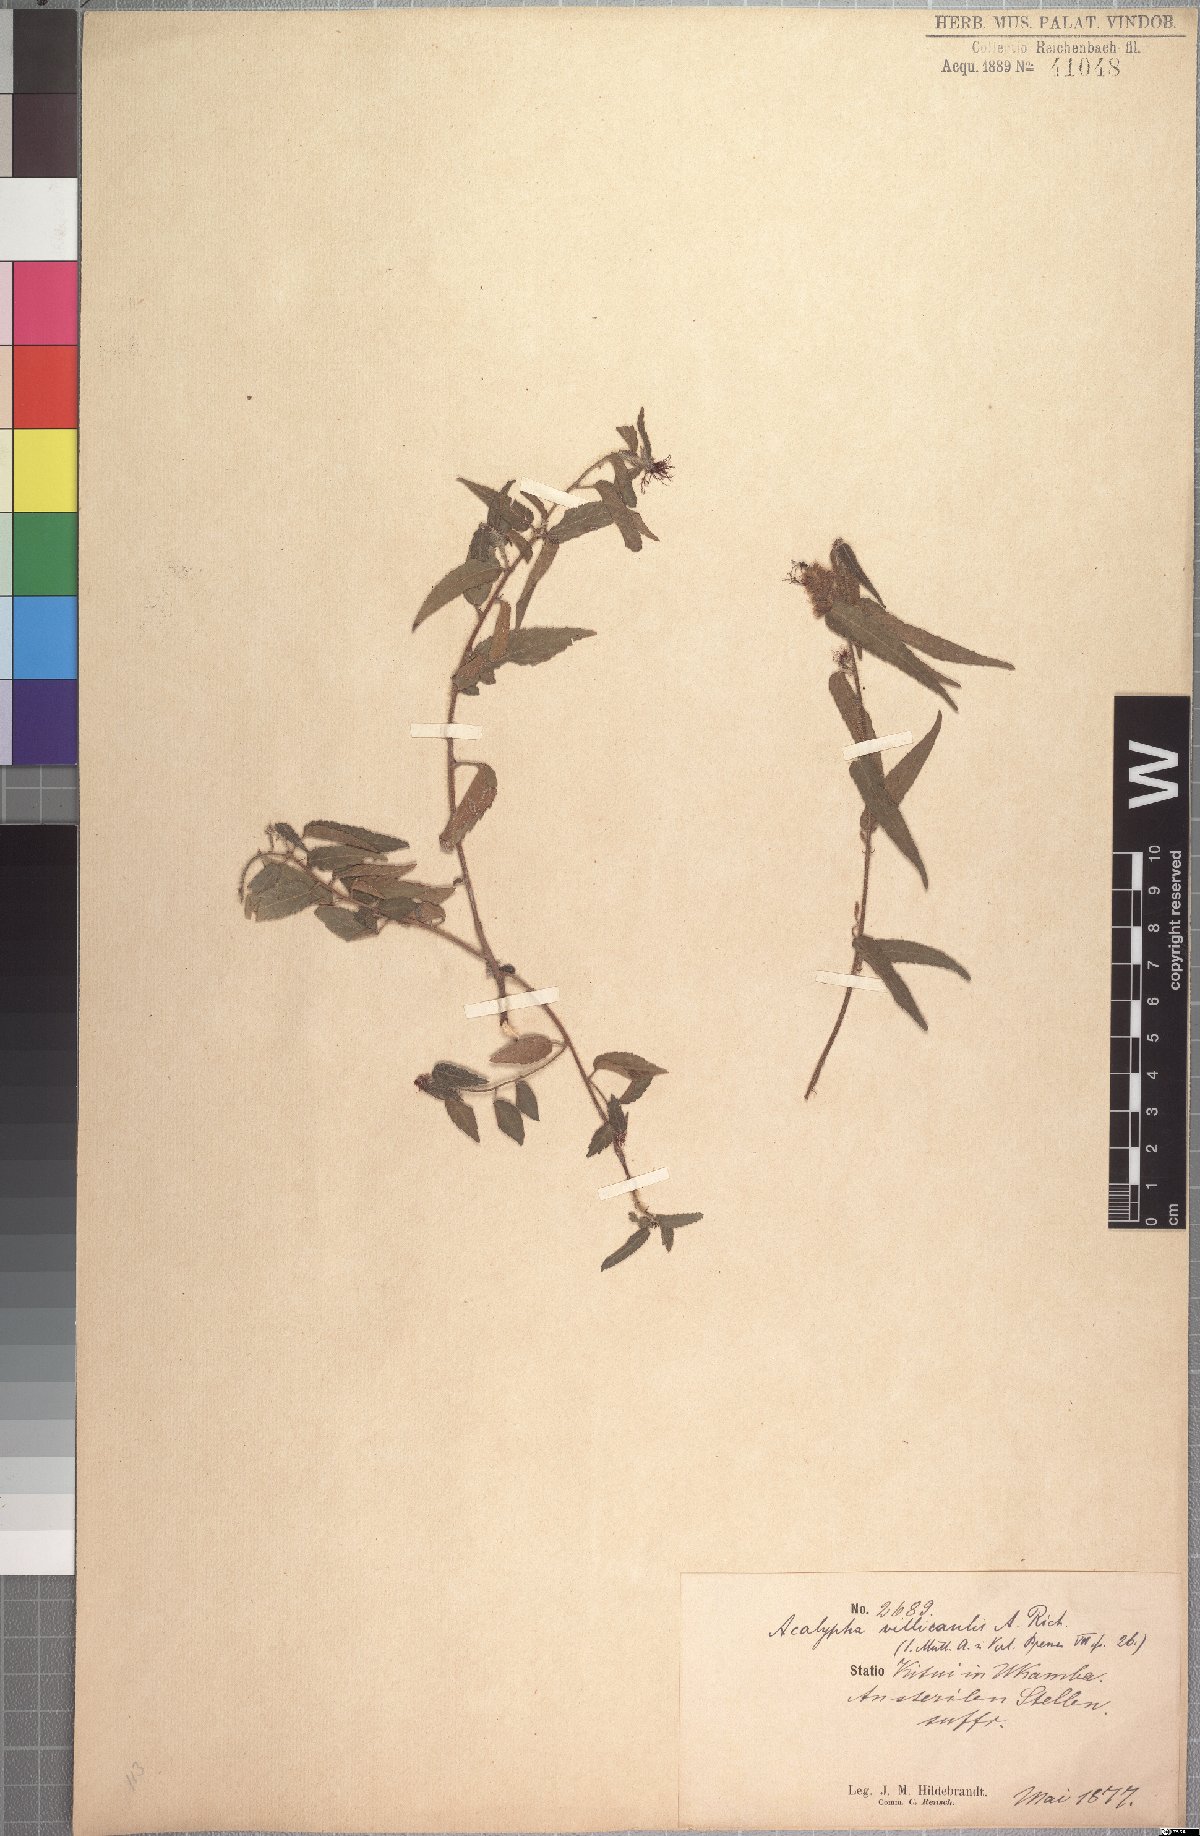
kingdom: Plantae
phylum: Tracheophyta
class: Magnoliopsida
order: Malpighiales
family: Euphorbiaceae
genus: Acalypha
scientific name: Acalypha petiolaris
